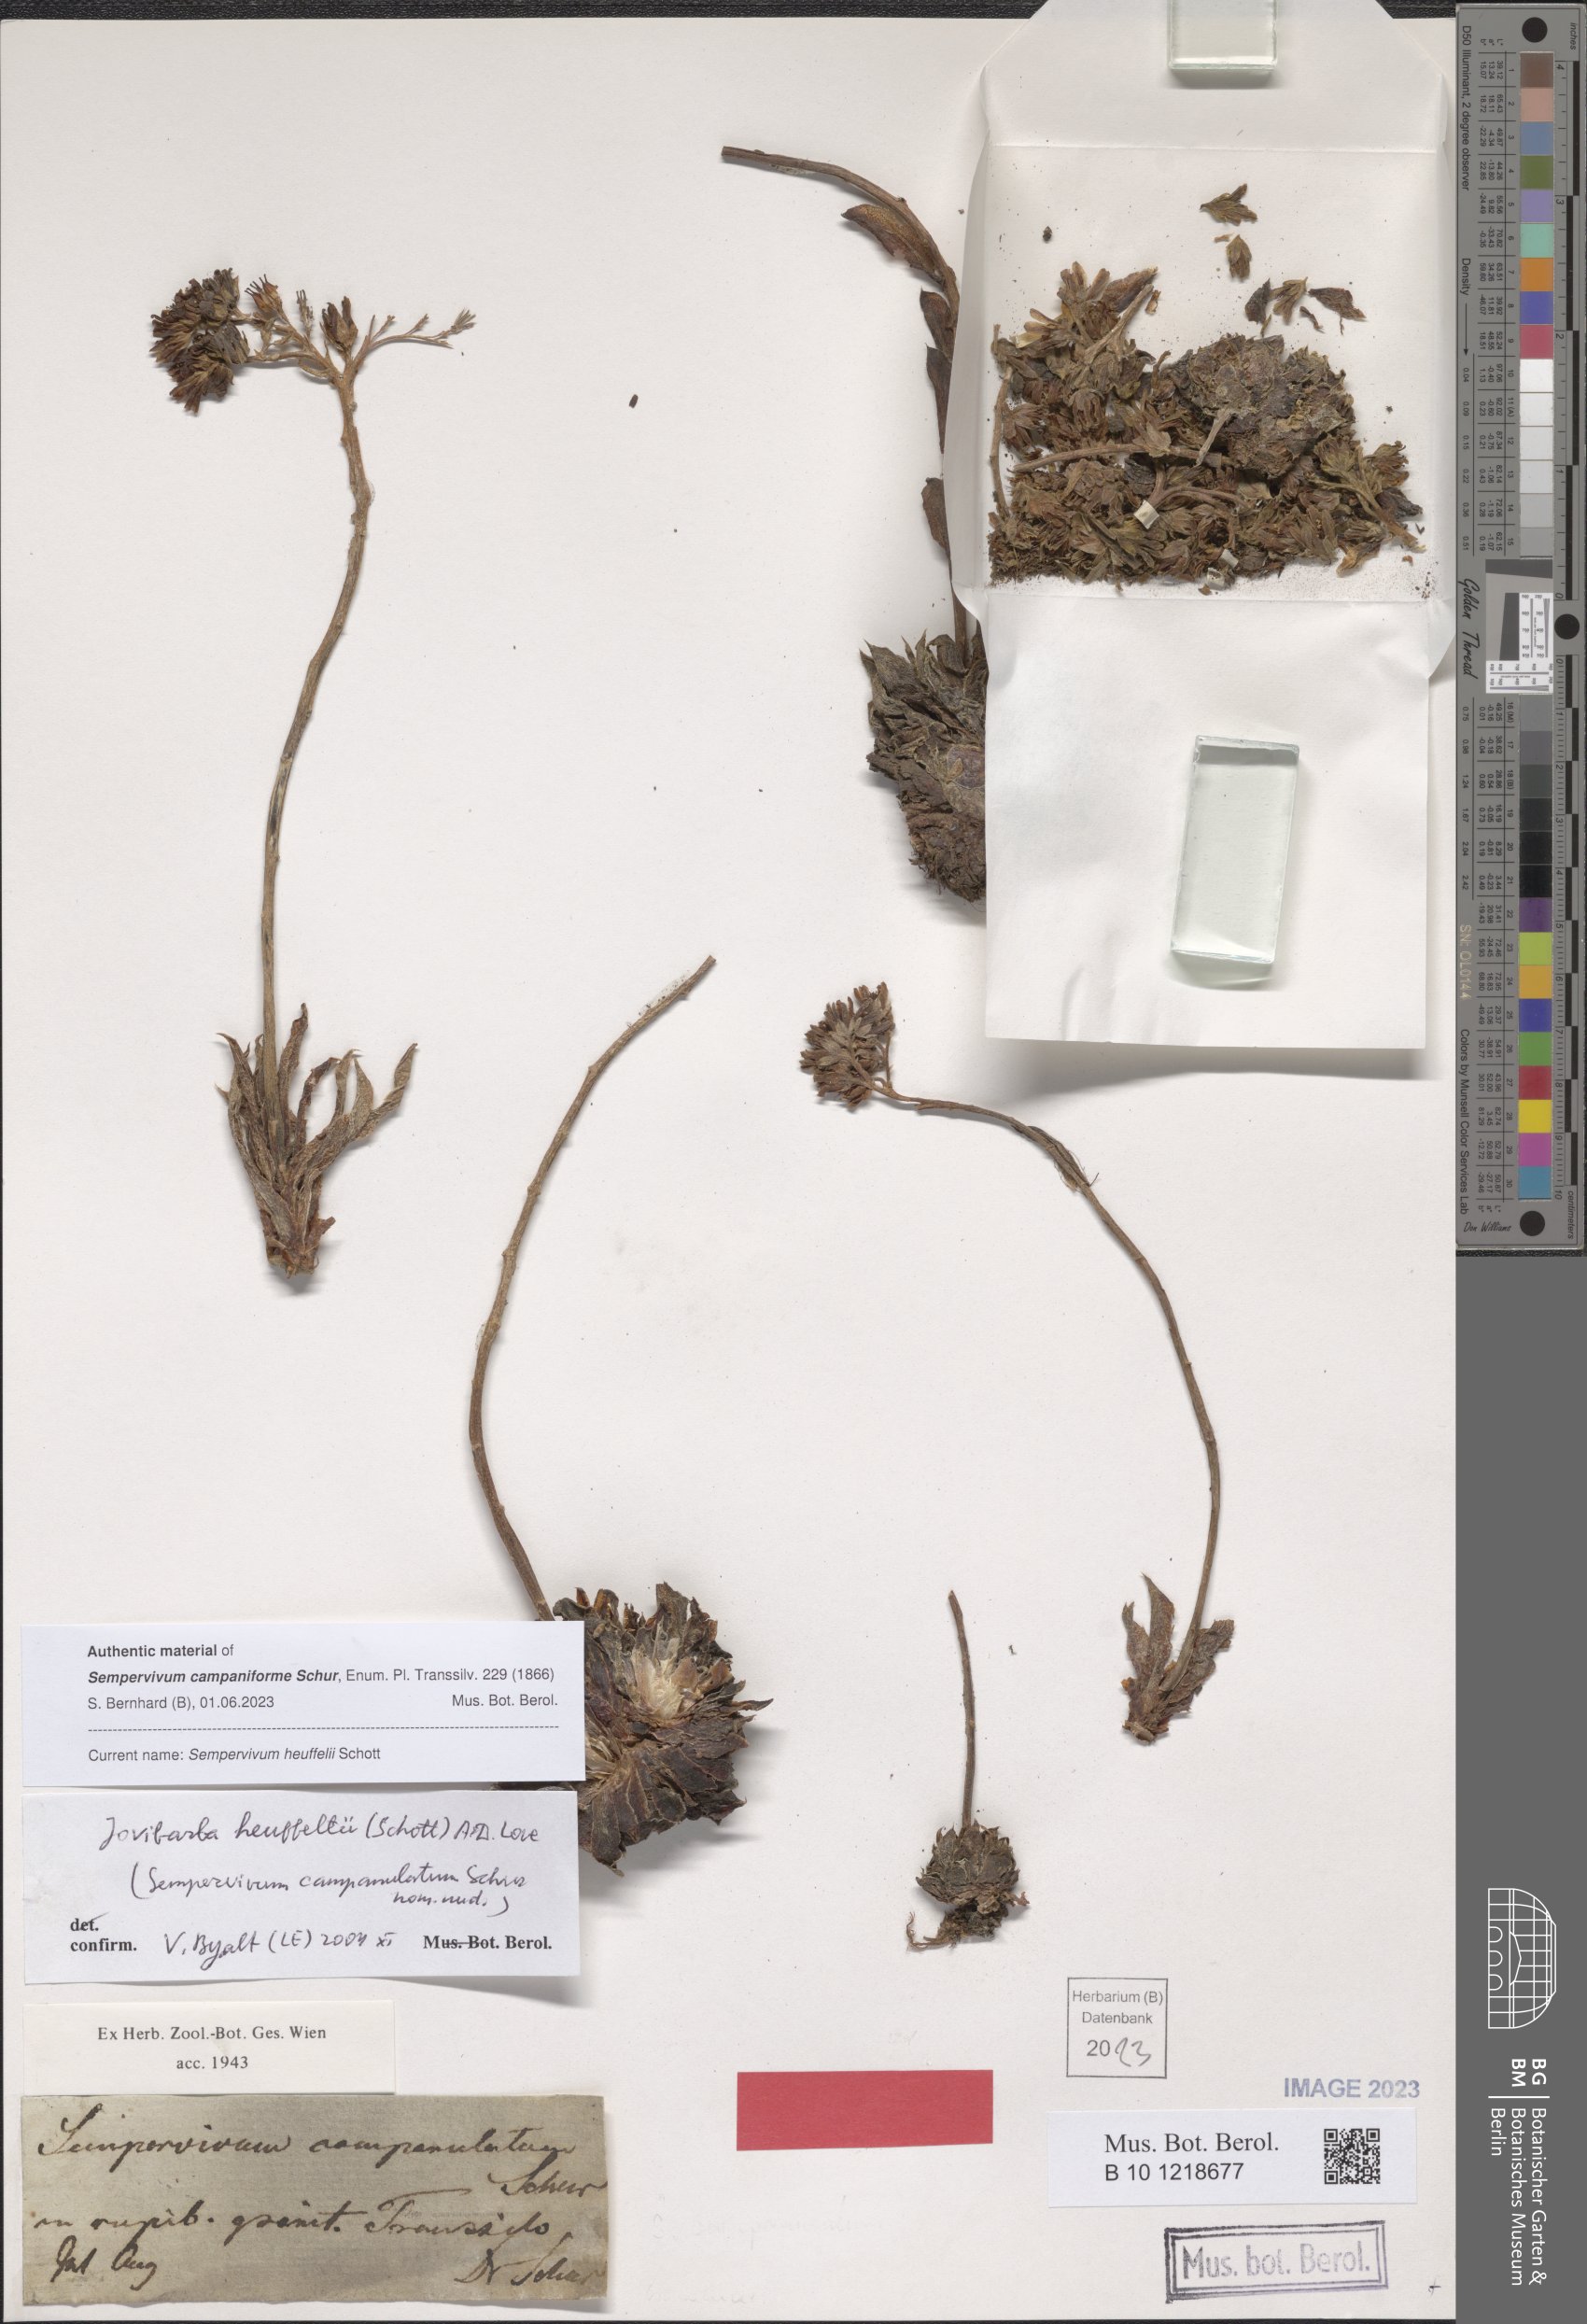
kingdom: Plantae
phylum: Tracheophyta
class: Magnoliopsida
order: Saxifragales
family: Crassulaceae
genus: Sempervivum
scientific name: Sempervivum heuffelii
